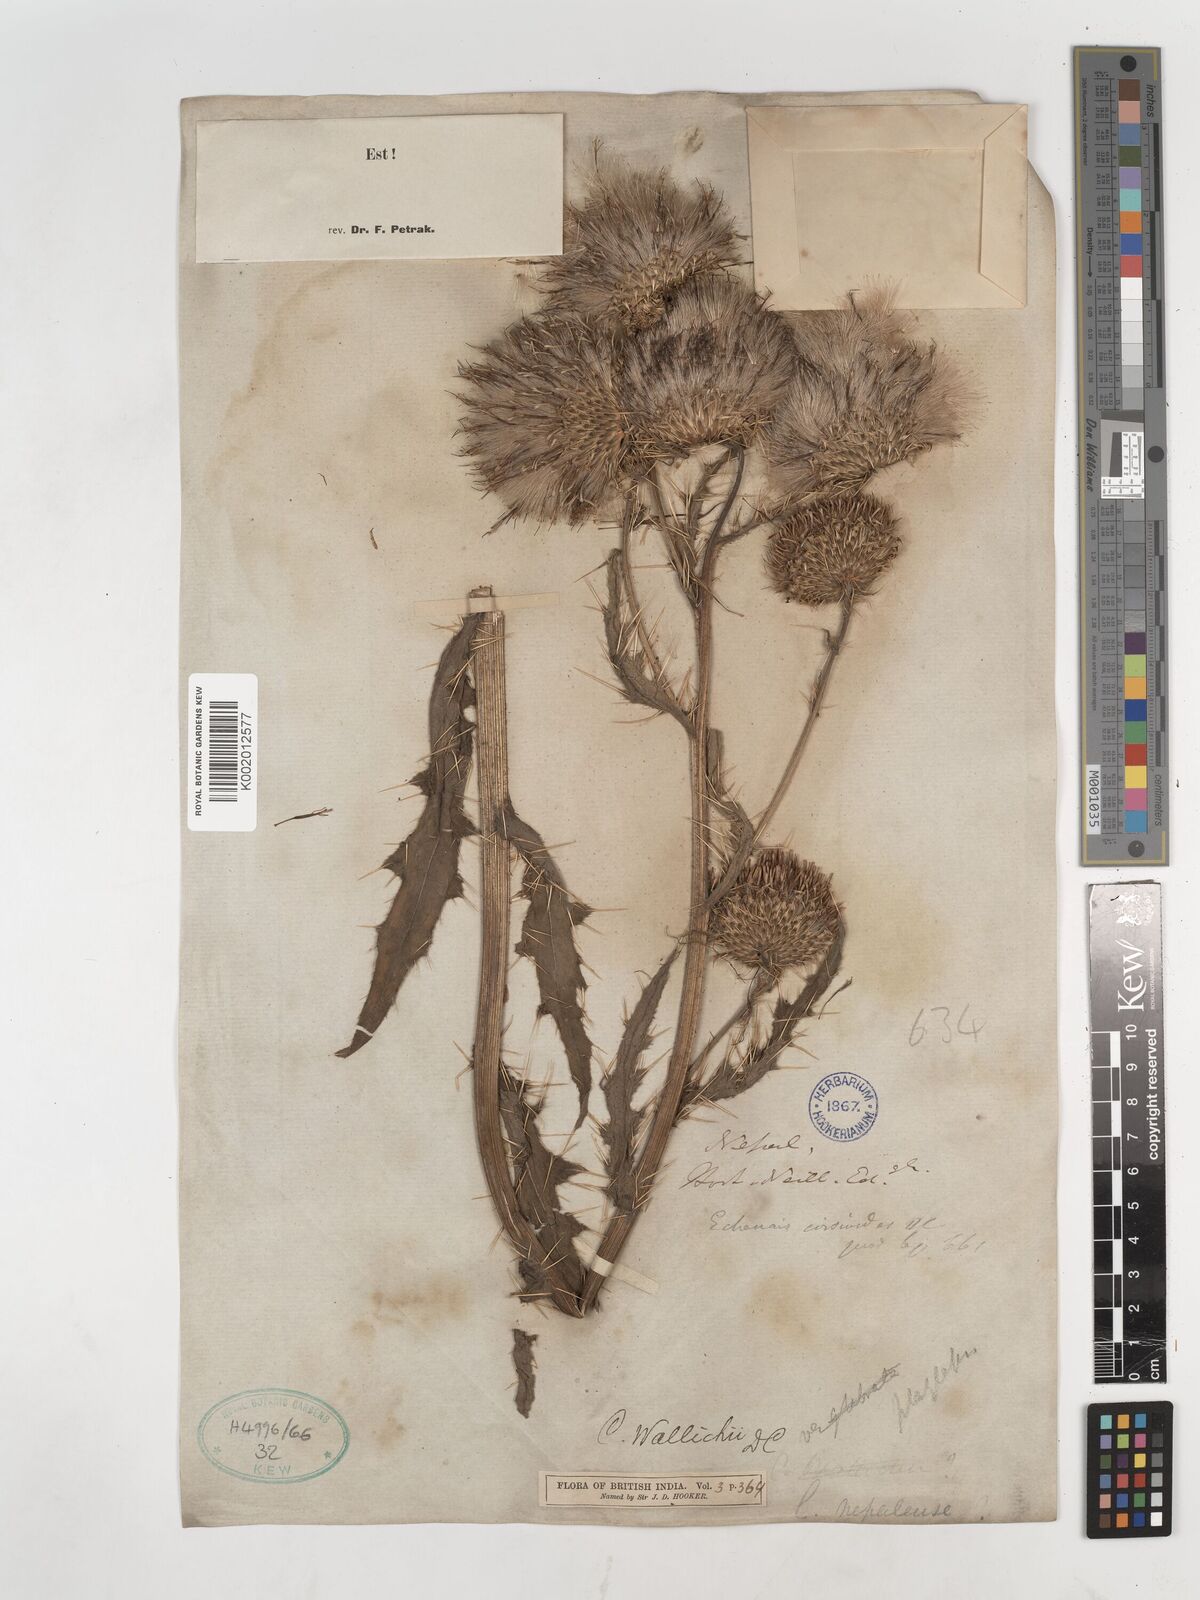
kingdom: Plantae
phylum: Tracheophyta
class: Magnoliopsida
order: Asterales
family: Asteraceae
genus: Cirsium
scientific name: Cirsium wallichii
